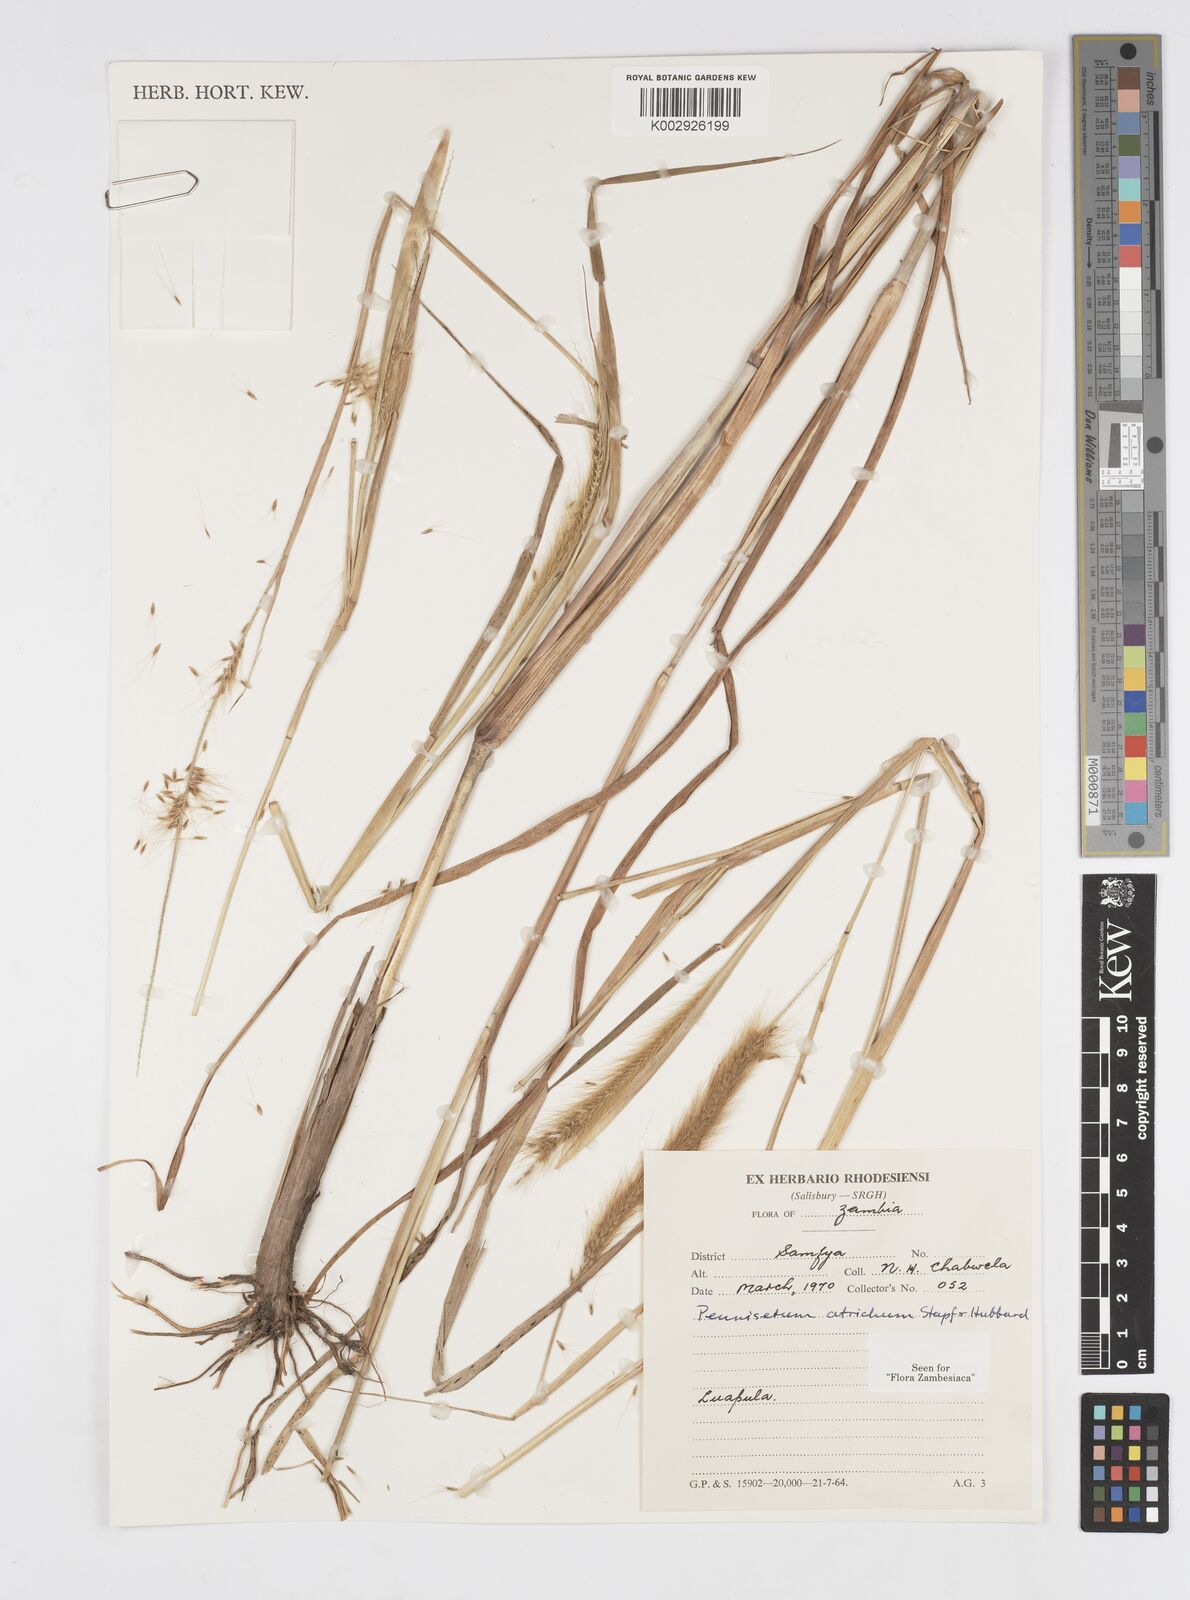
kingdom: Plantae
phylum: Tracheophyta
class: Liliopsida
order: Poales
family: Poaceae
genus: Cenchrus
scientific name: Cenchrus setosus
